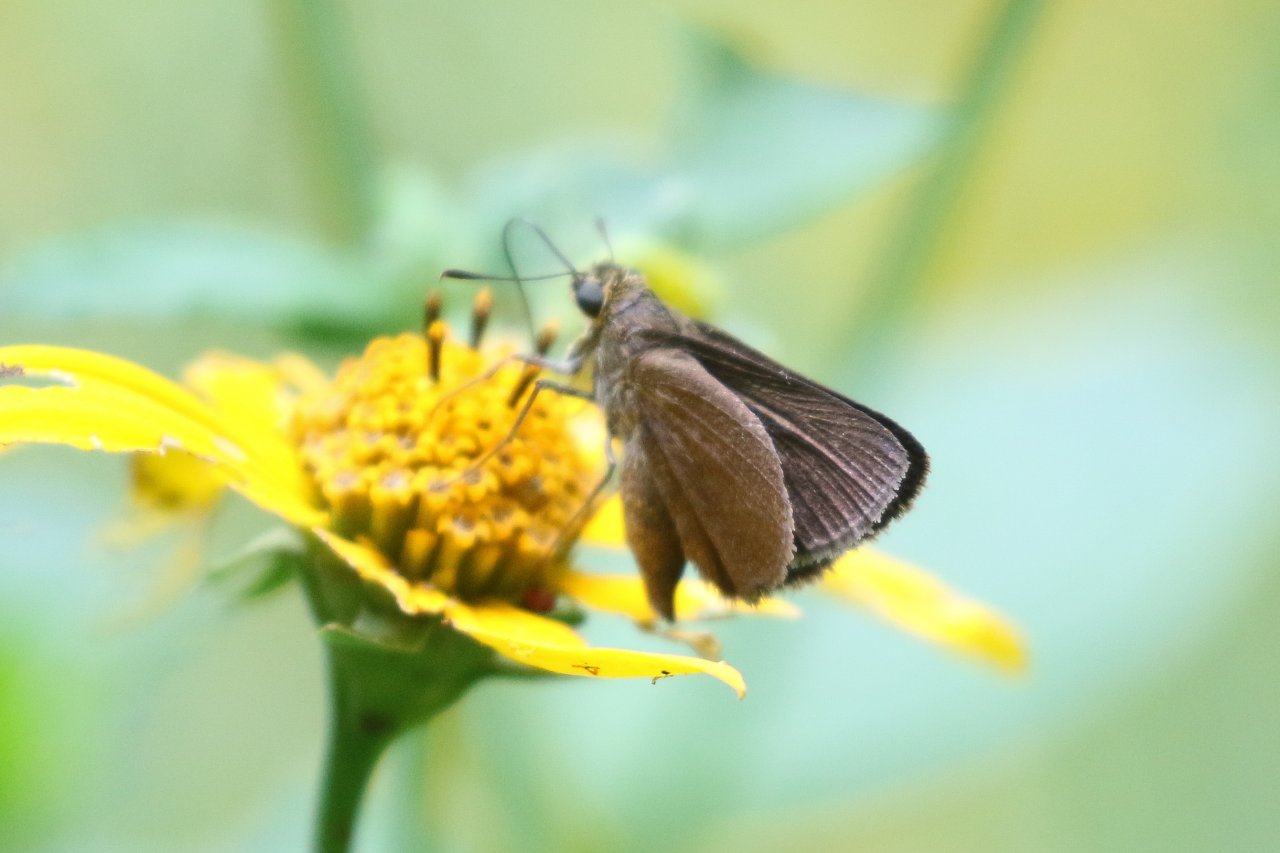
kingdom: Animalia
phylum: Arthropoda
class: Insecta
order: Lepidoptera
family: Hesperiidae
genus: Euphyes
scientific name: Euphyes vestris
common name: Dun Skipper
